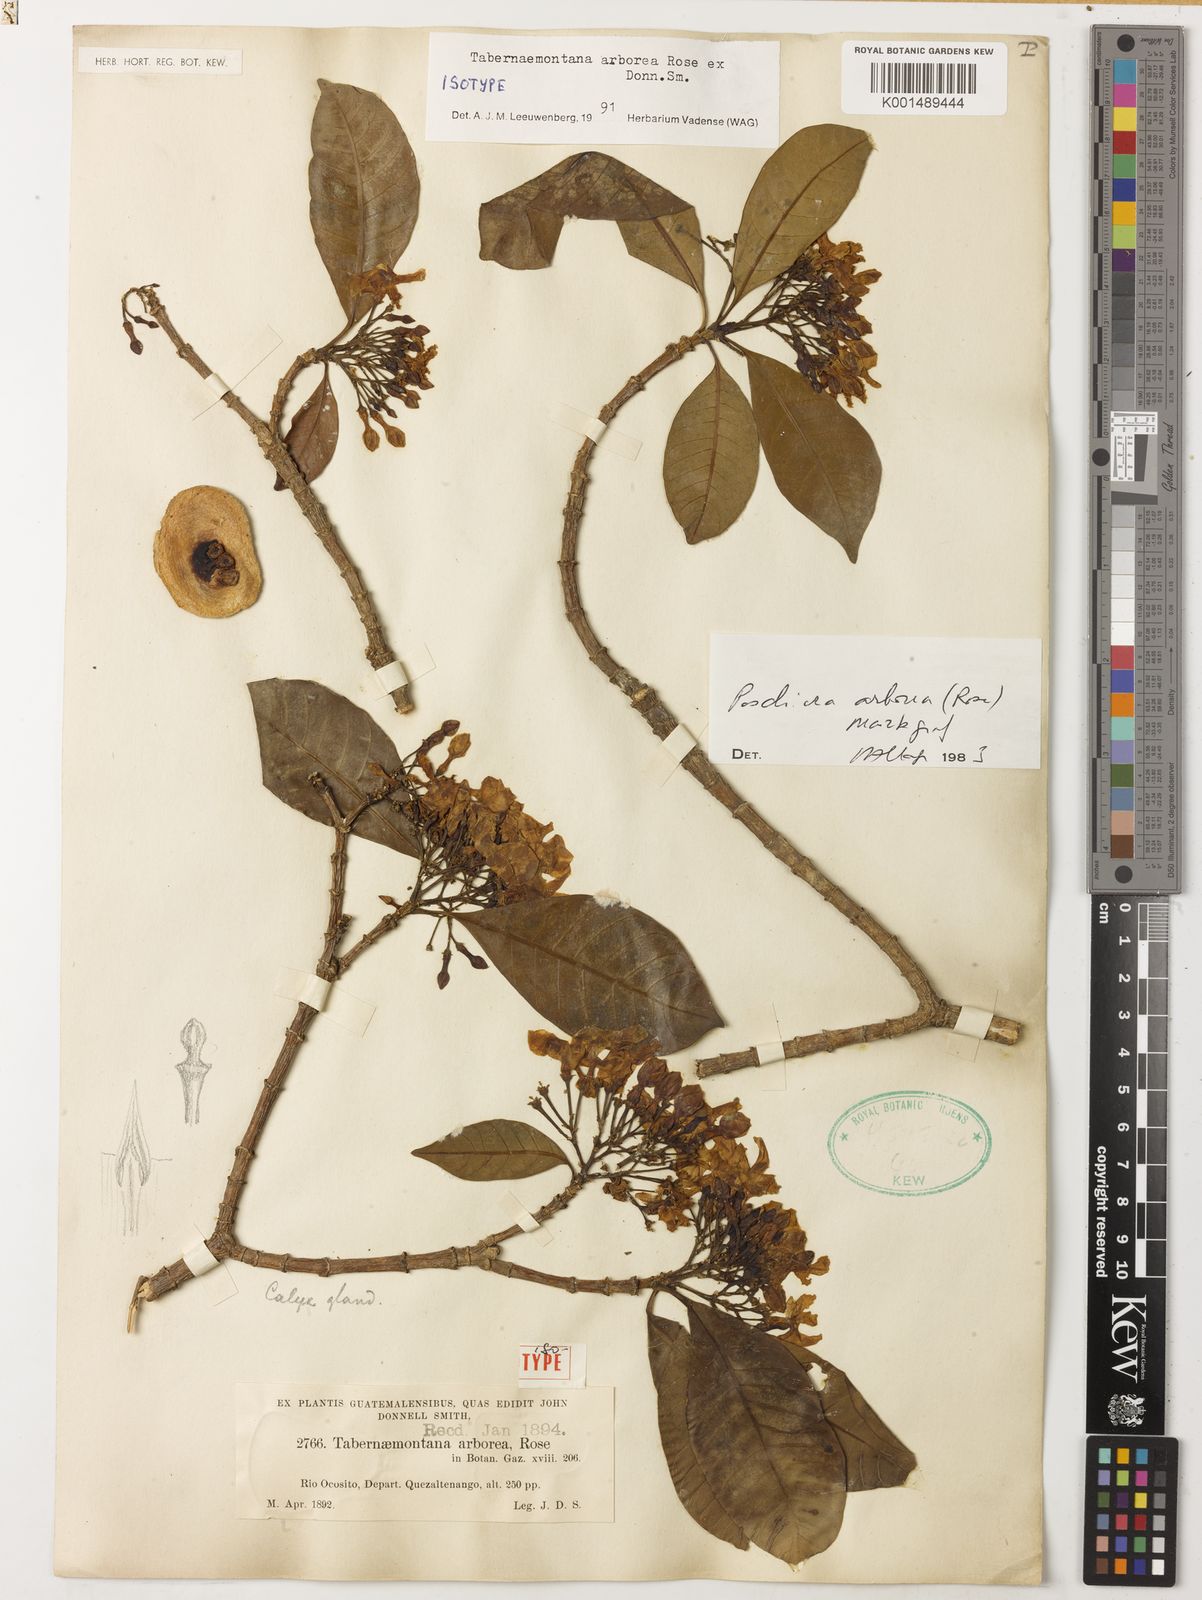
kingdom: Plantae
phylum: Tracheophyta
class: Magnoliopsida
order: Gentianales
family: Apocynaceae
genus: Tabernaemontana
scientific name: Tabernaemontana arborea
